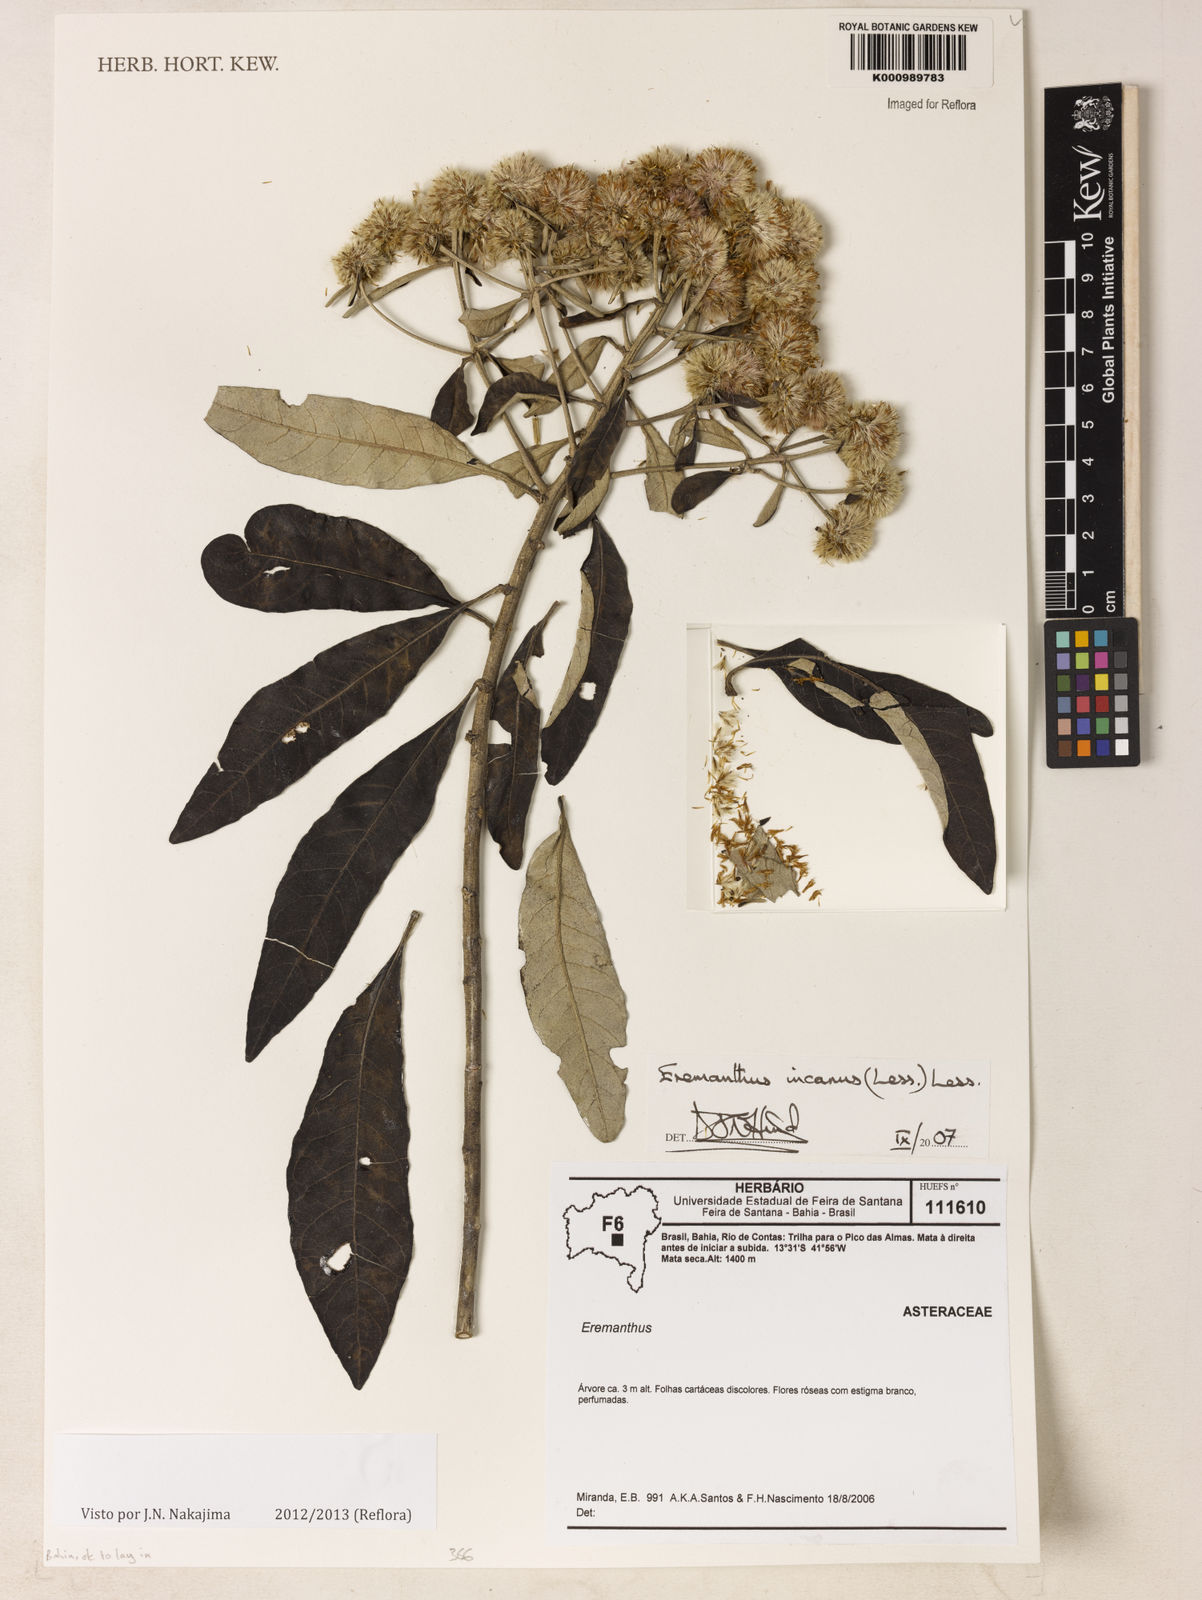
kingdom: Plantae
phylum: Tracheophyta
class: Magnoliopsida
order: Asterales
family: Asteraceae
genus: Eremanthus
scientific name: Eremanthus incanus
